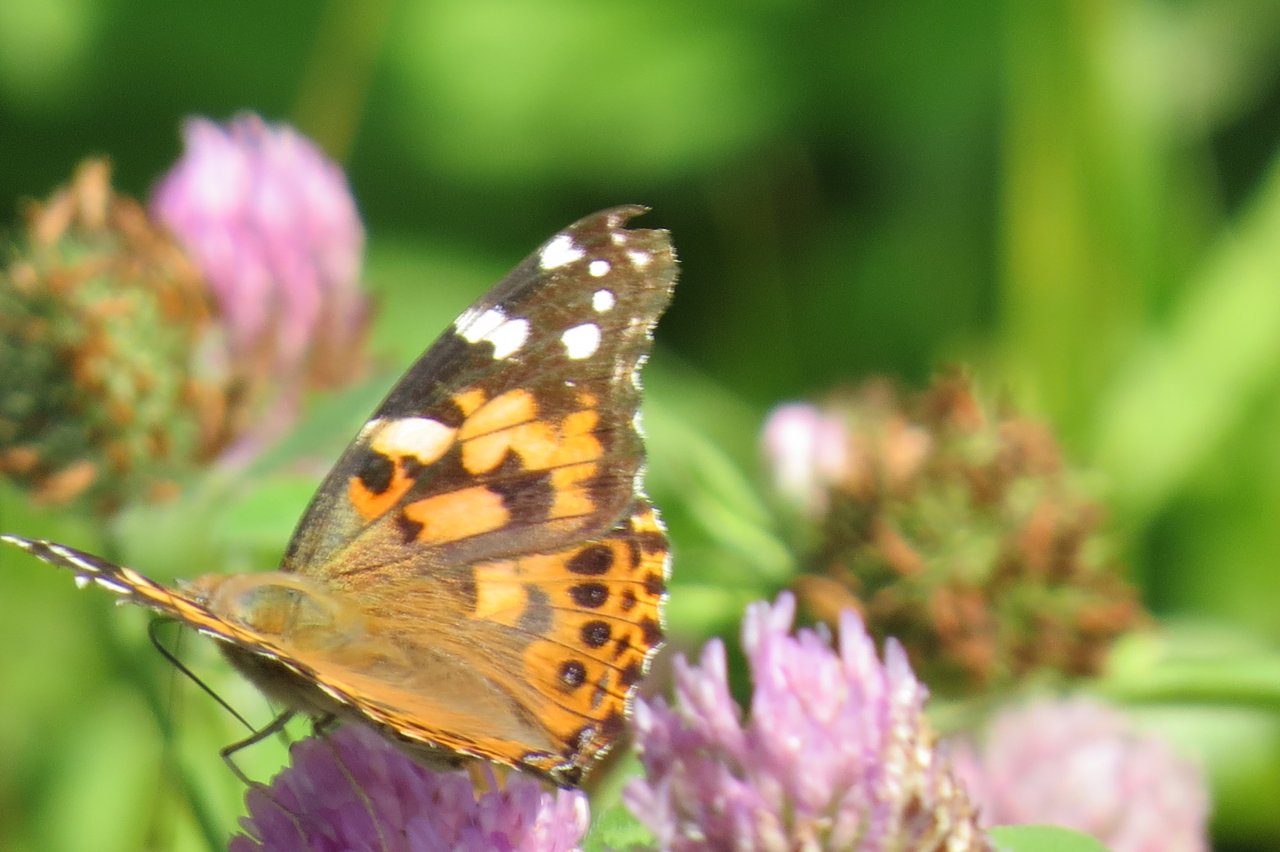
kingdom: Animalia
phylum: Arthropoda
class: Insecta
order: Lepidoptera
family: Nymphalidae
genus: Vanessa
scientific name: Vanessa cardui
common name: Painted Lady
